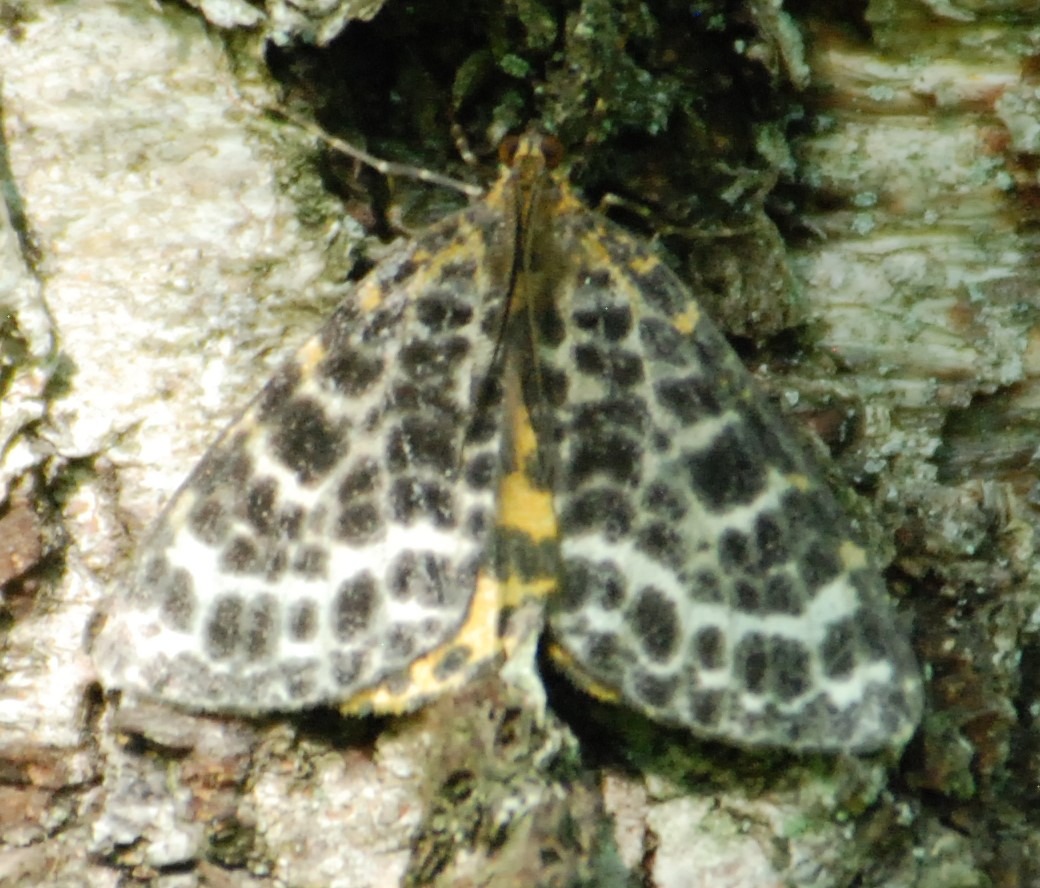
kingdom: Animalia
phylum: Arthropoda
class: Insecta
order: Lepidoptera
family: Geometridae
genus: Arichanna
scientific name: Arichanna melanaria
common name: Mose-harlekin
